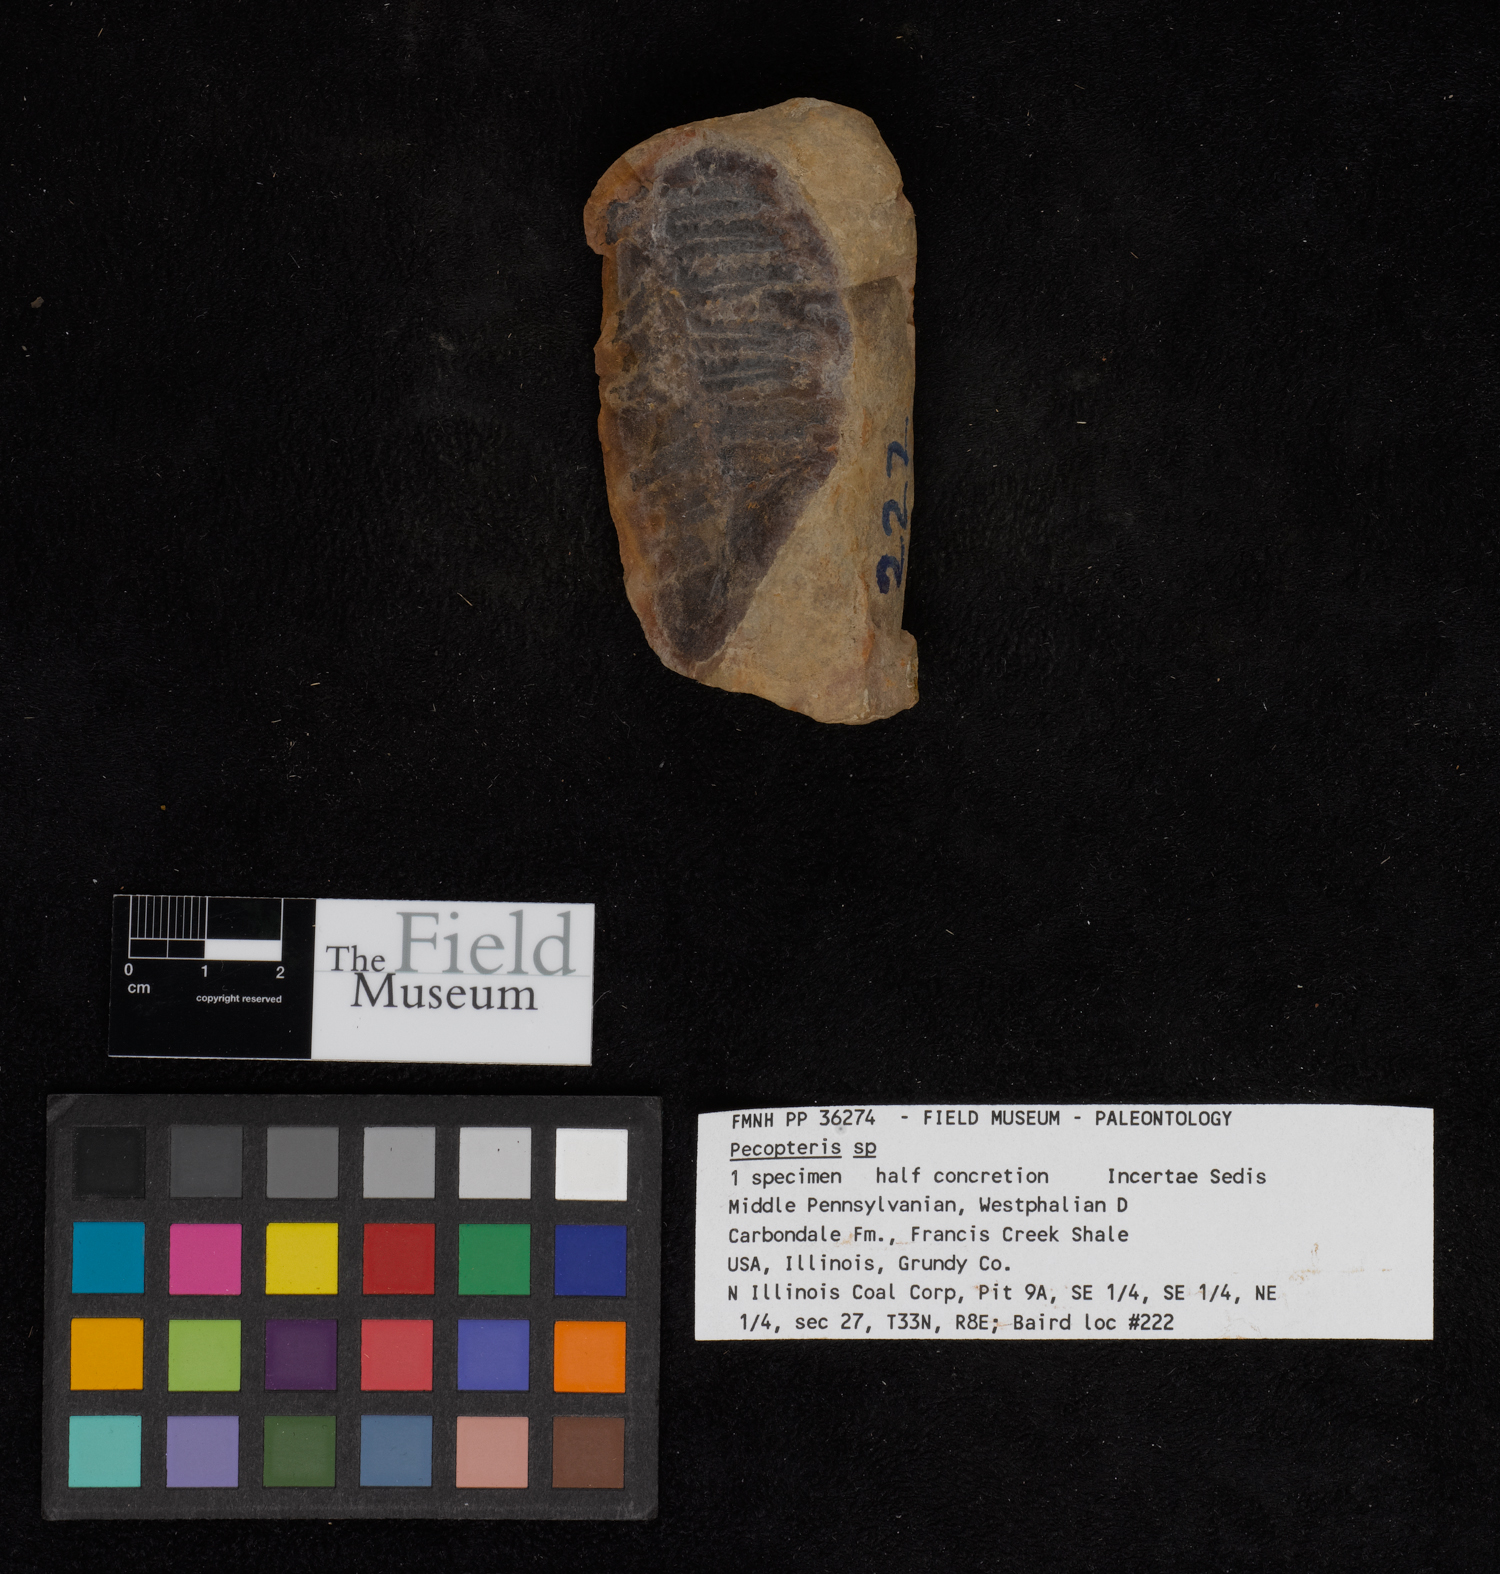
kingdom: Plantae
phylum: Tracheophyta
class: Polypodiopsida
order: Marattiales
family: Asterothecaceae
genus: Pecopteris
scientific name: Pecopteris
